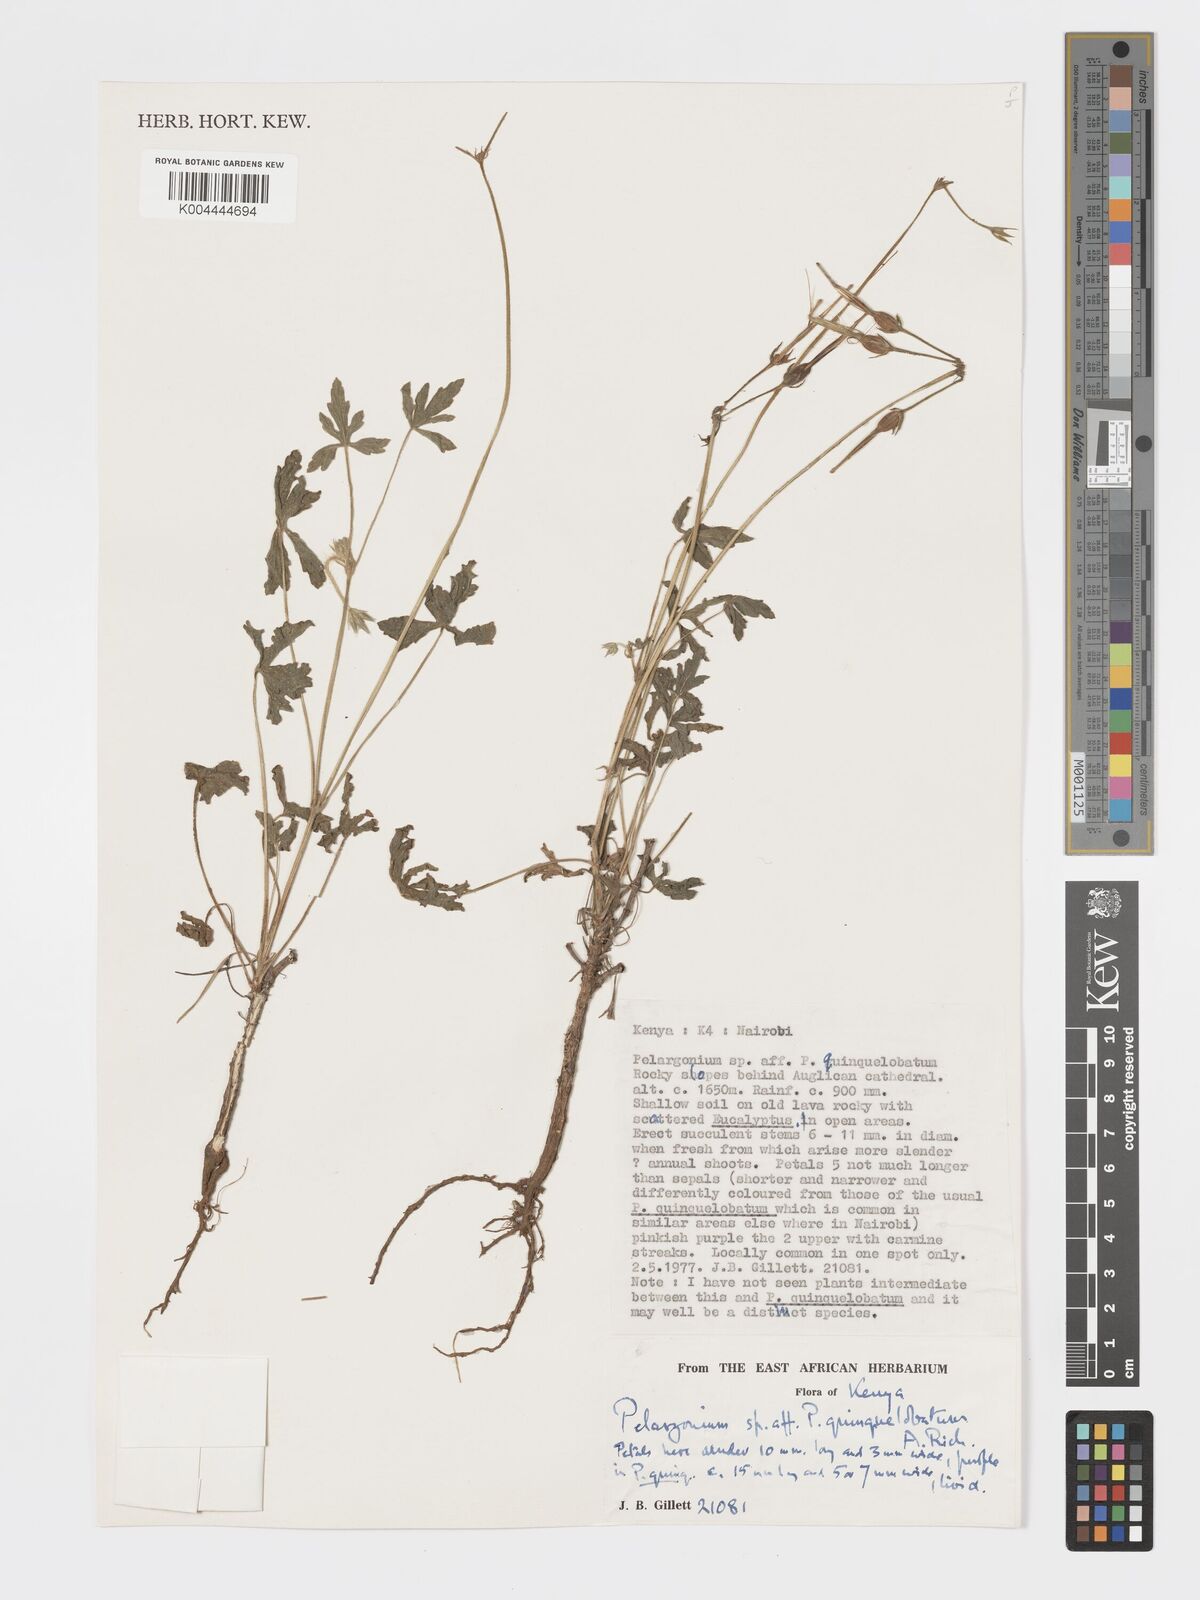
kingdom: Plantae
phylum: Tracheophyta
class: Magnoliopsida
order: Geraniales
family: Geraniaceae
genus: Pelargonium
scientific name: Pelargonium quinquelobatum
